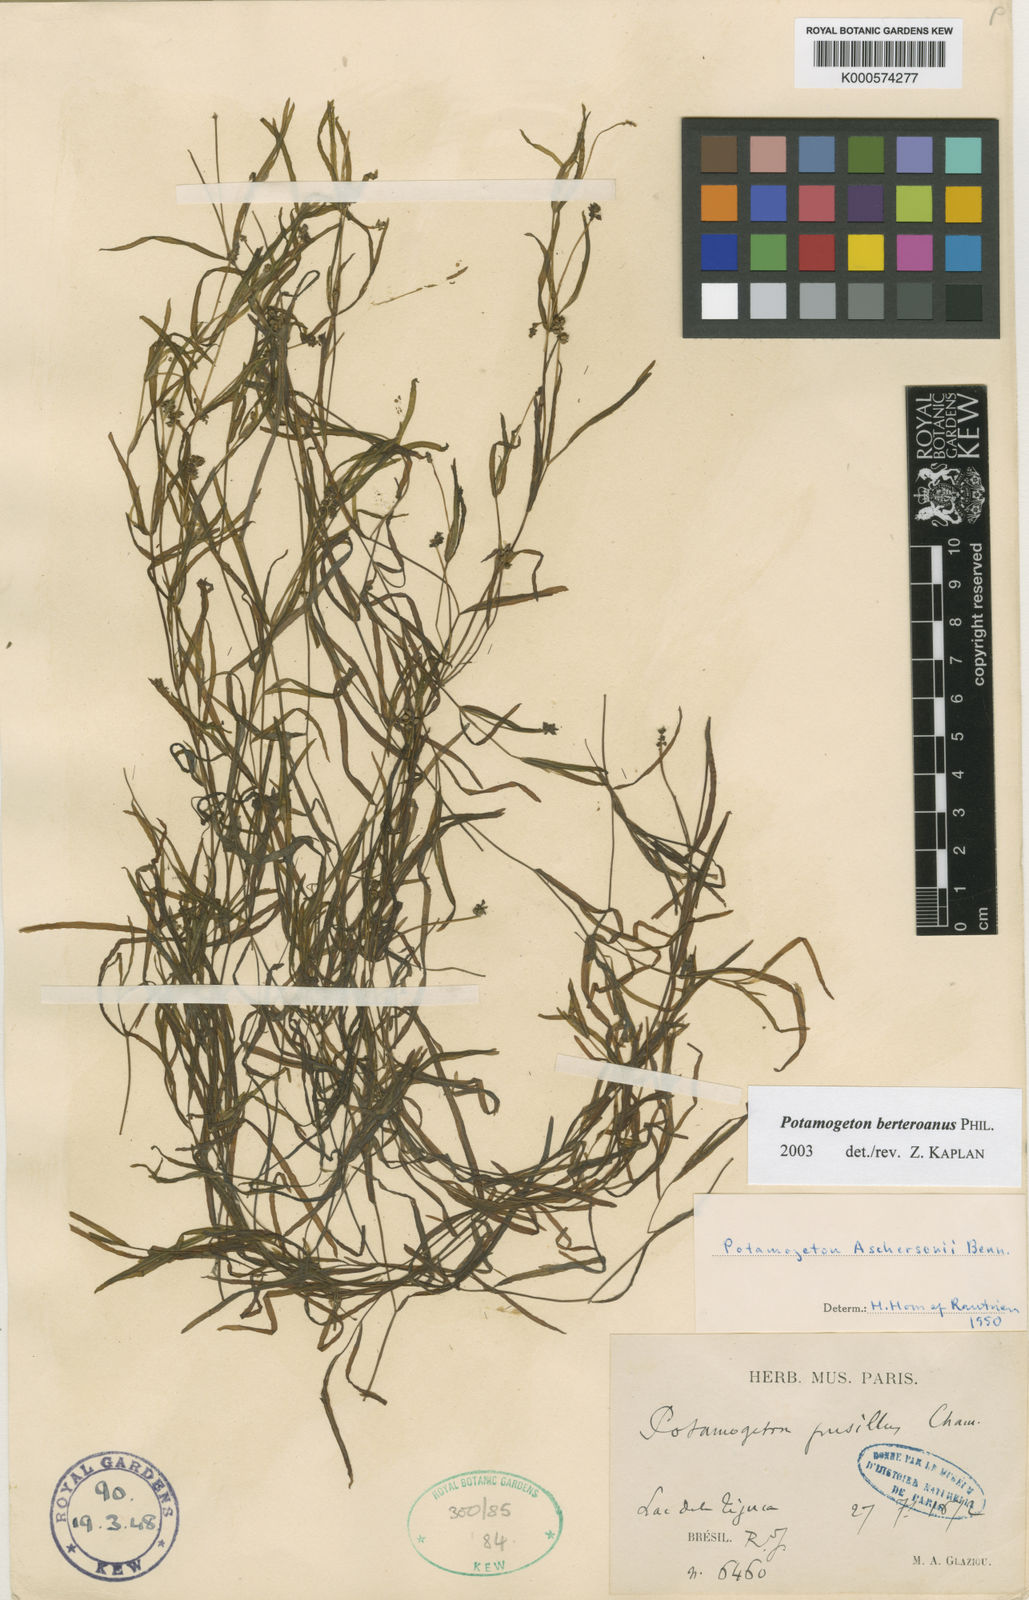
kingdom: Plantae
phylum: Tracheophyta
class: Liliopsida
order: Alismatales
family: Potamogetonaceae
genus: Potamogeton
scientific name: Potamogeton pusillus
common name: Lesser pondweed
